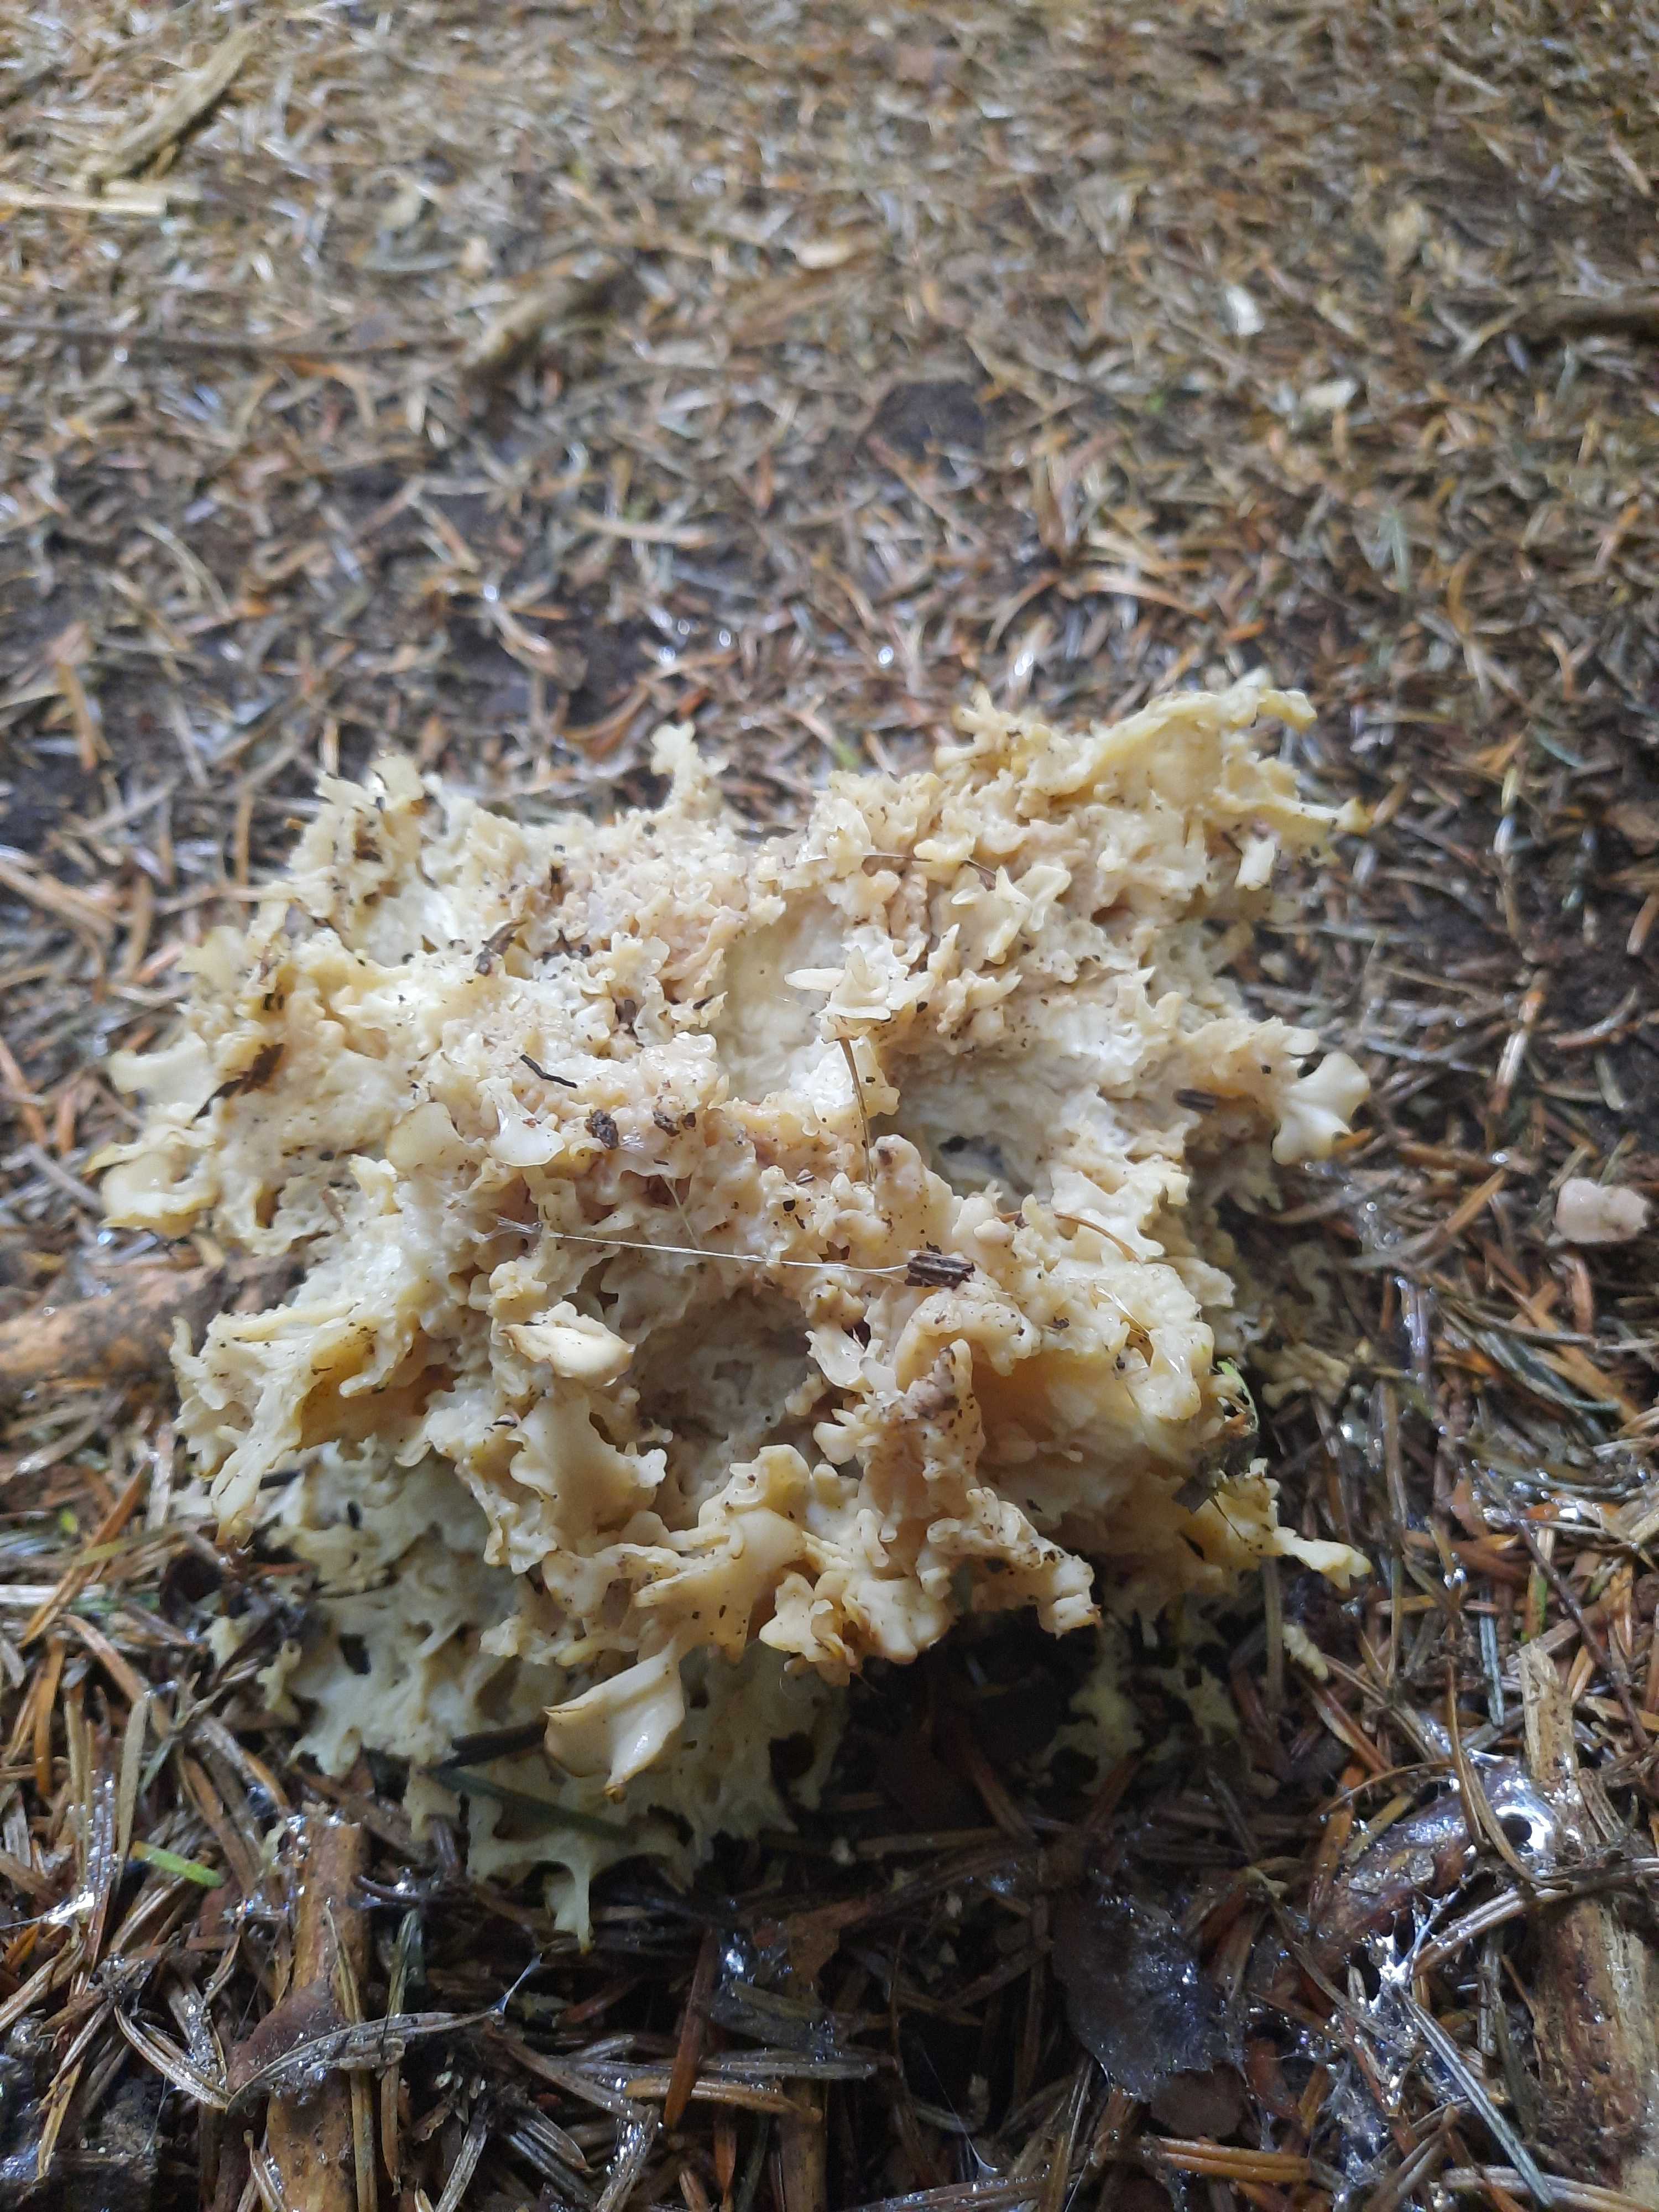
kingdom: Fungi
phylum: Basidiomycota
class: Agaricomycetes
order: Polyporales
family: Sparassidaceae
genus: Sparassis
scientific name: Sparassis crispa
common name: kruset blomkålssvamp
